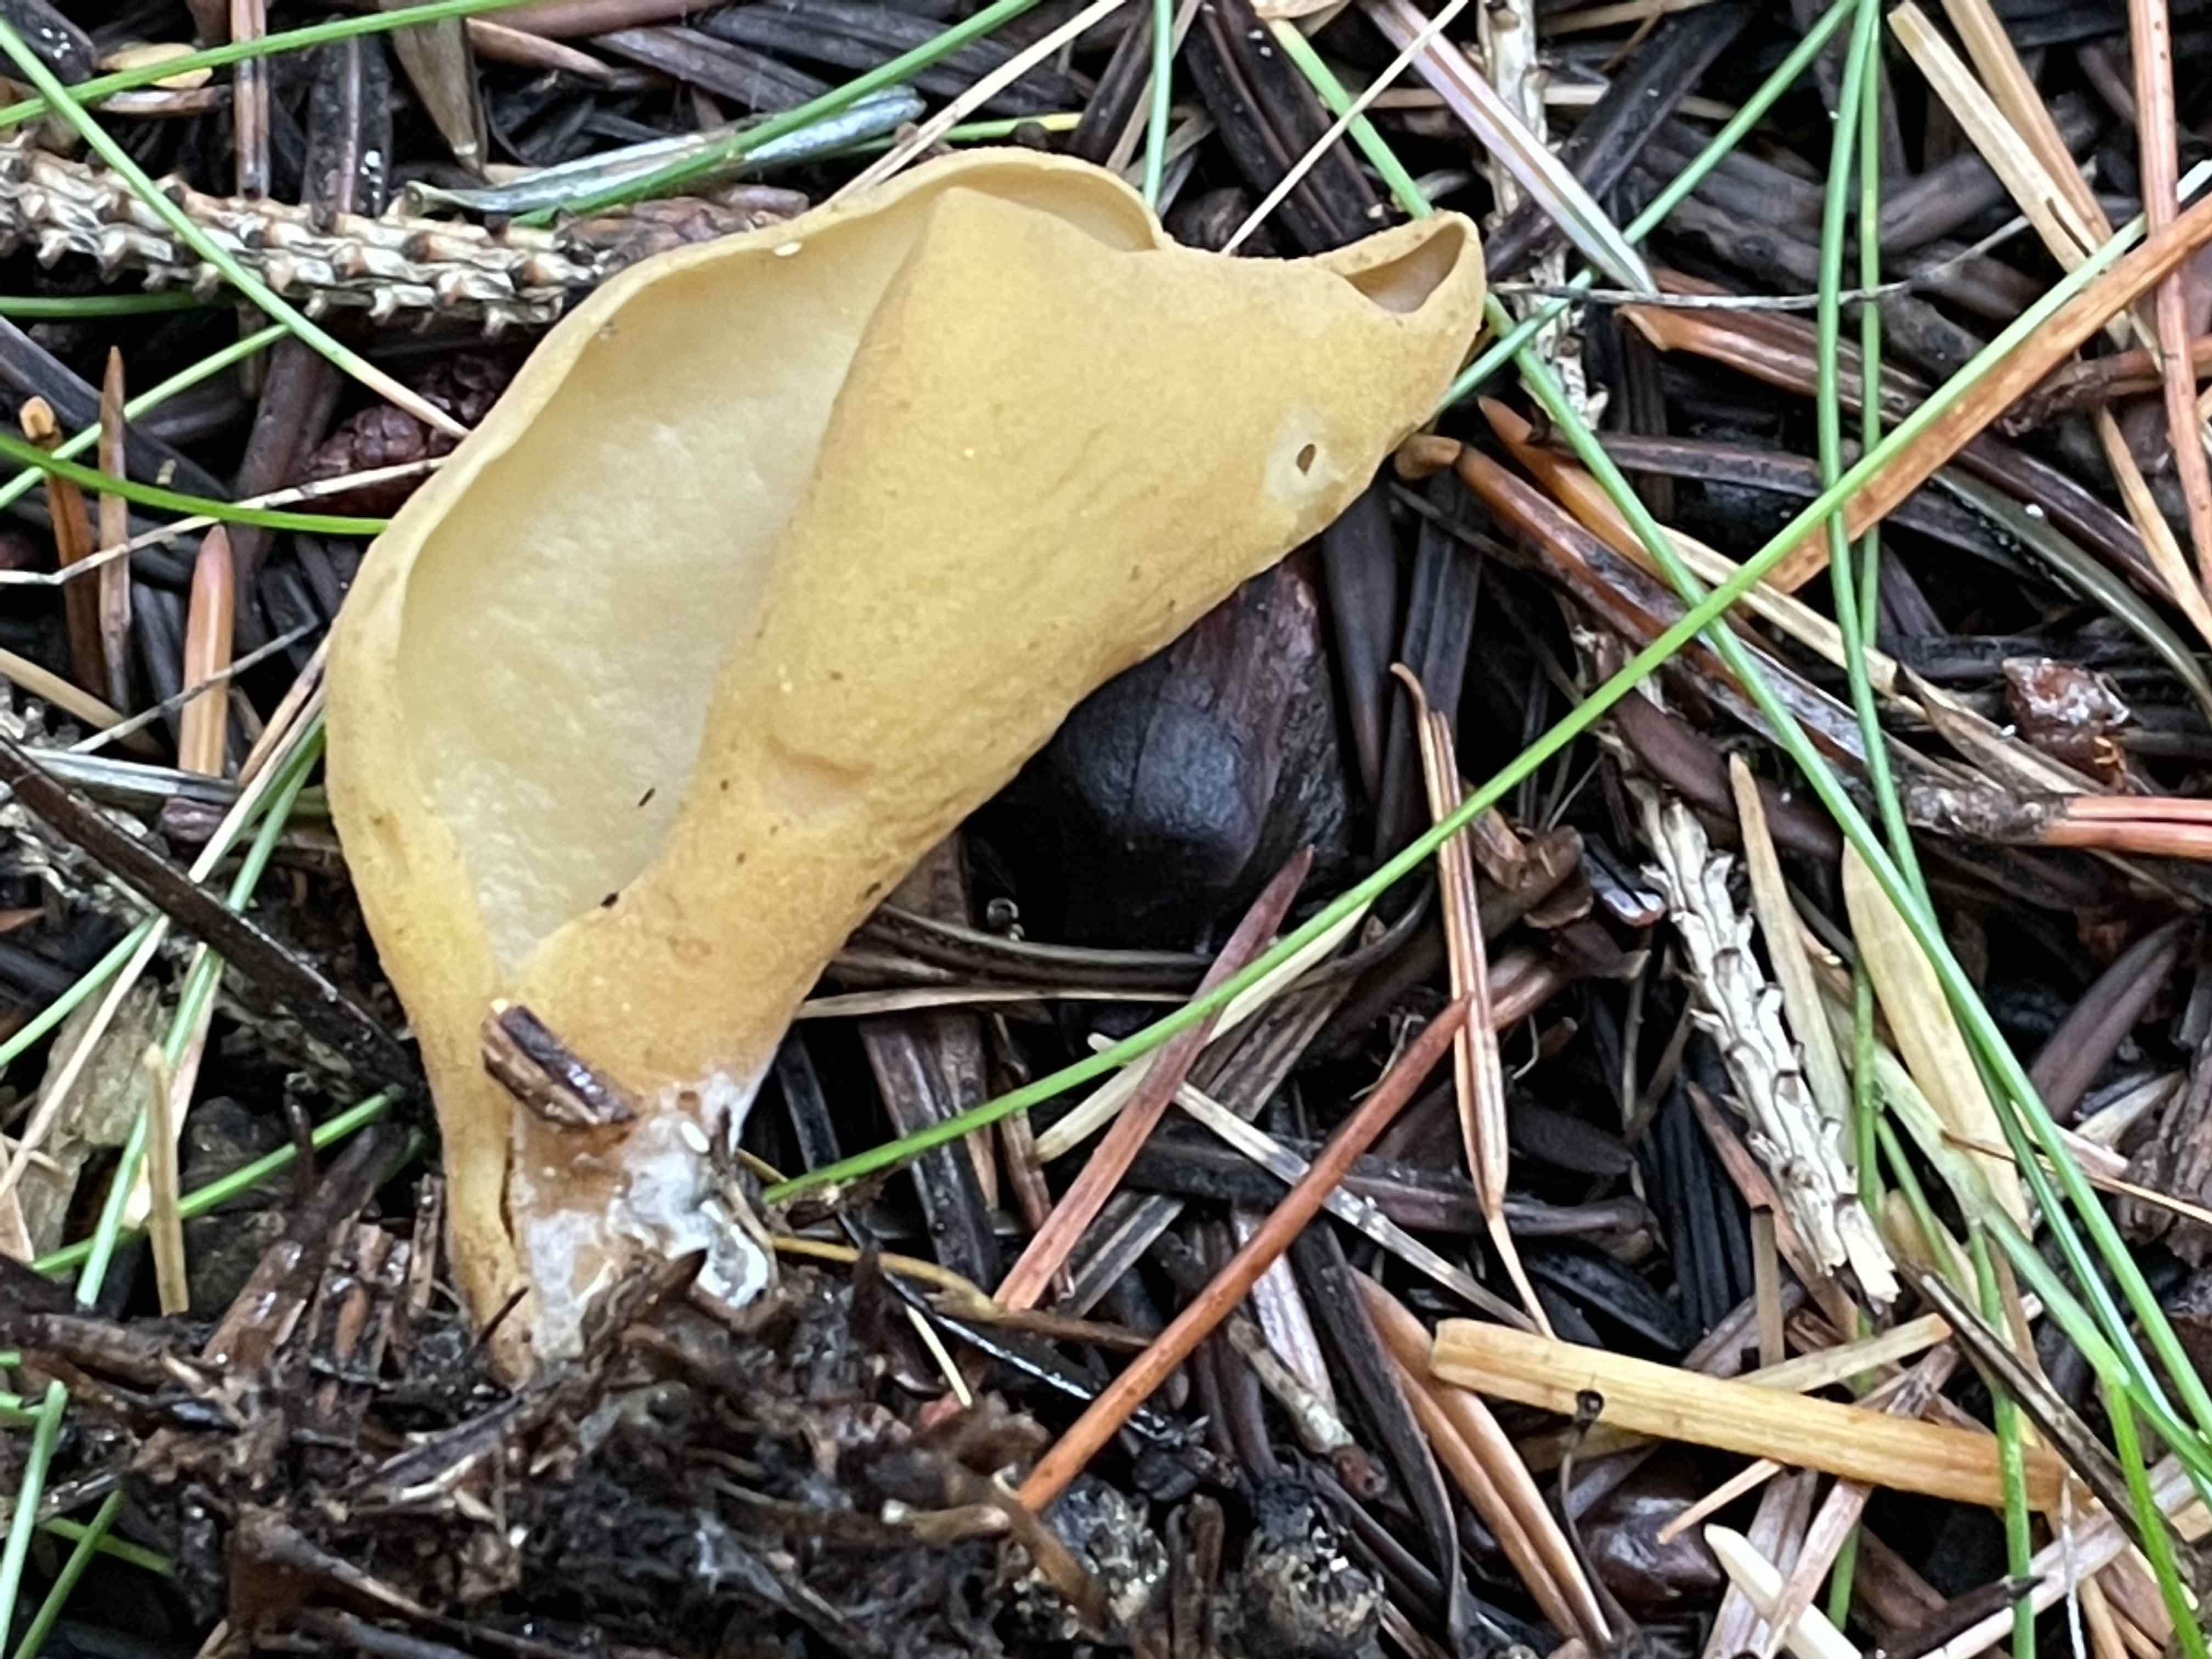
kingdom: Fungi
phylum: Ascomycota
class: Pezizomycetes
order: Pezizales
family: Otideaceae
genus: Otidea
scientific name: Otidea
